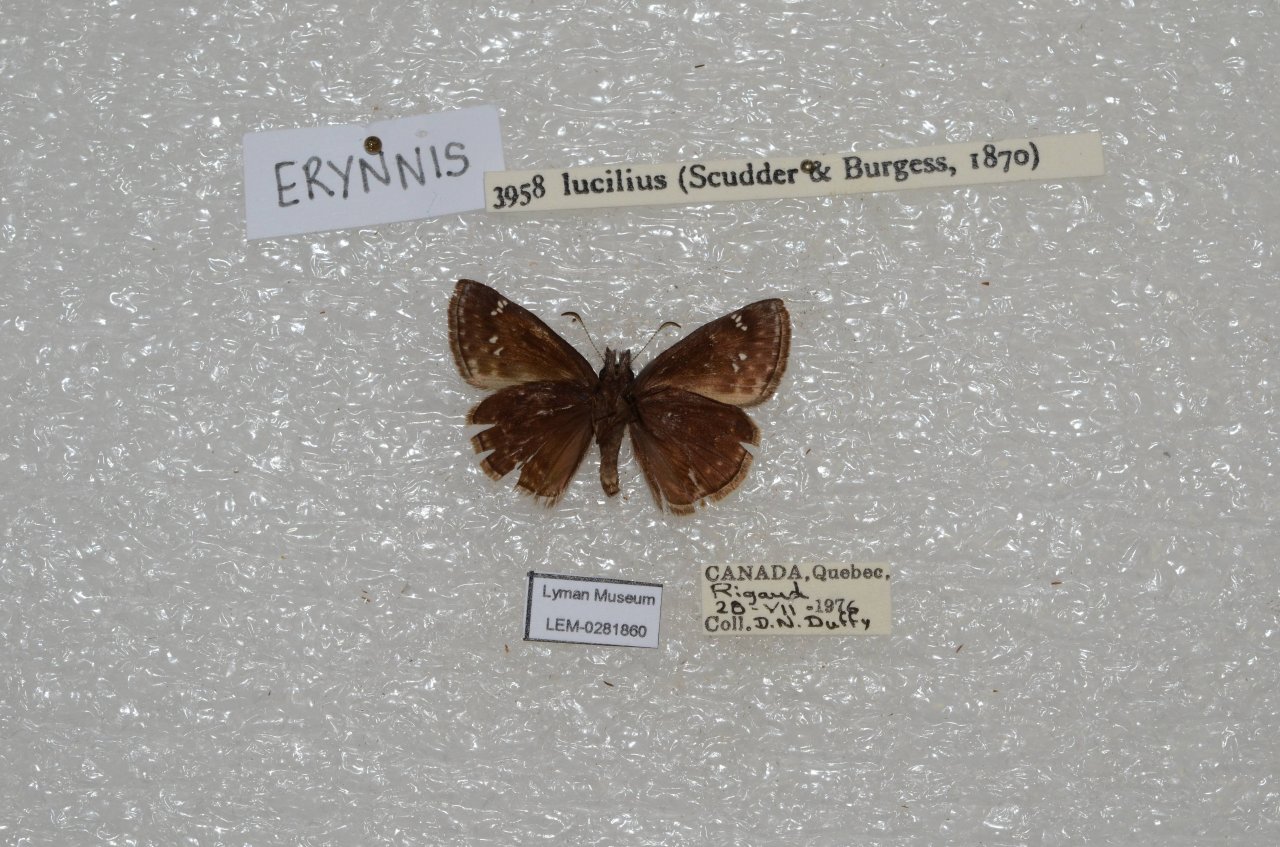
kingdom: Animalia
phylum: Arthropoda
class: Insecta
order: Lepidoptera
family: Hesperiidae
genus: Gesta
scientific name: Gesta
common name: Columbine Duskywing
